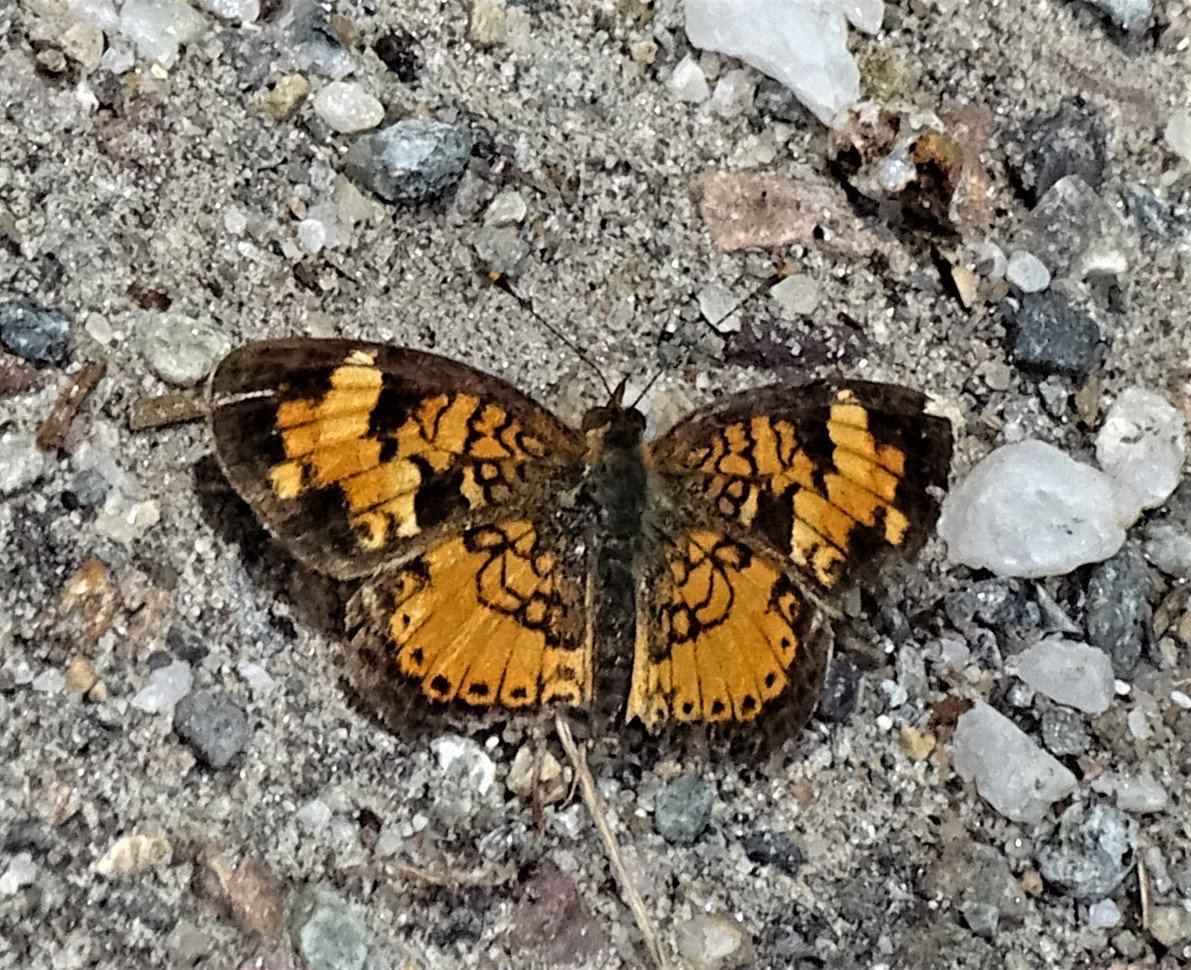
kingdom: Animalia
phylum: Arthropoda
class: Insecta
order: Lepidoptera
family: Nymphalidae
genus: Phyciodes
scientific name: Phyciodes
